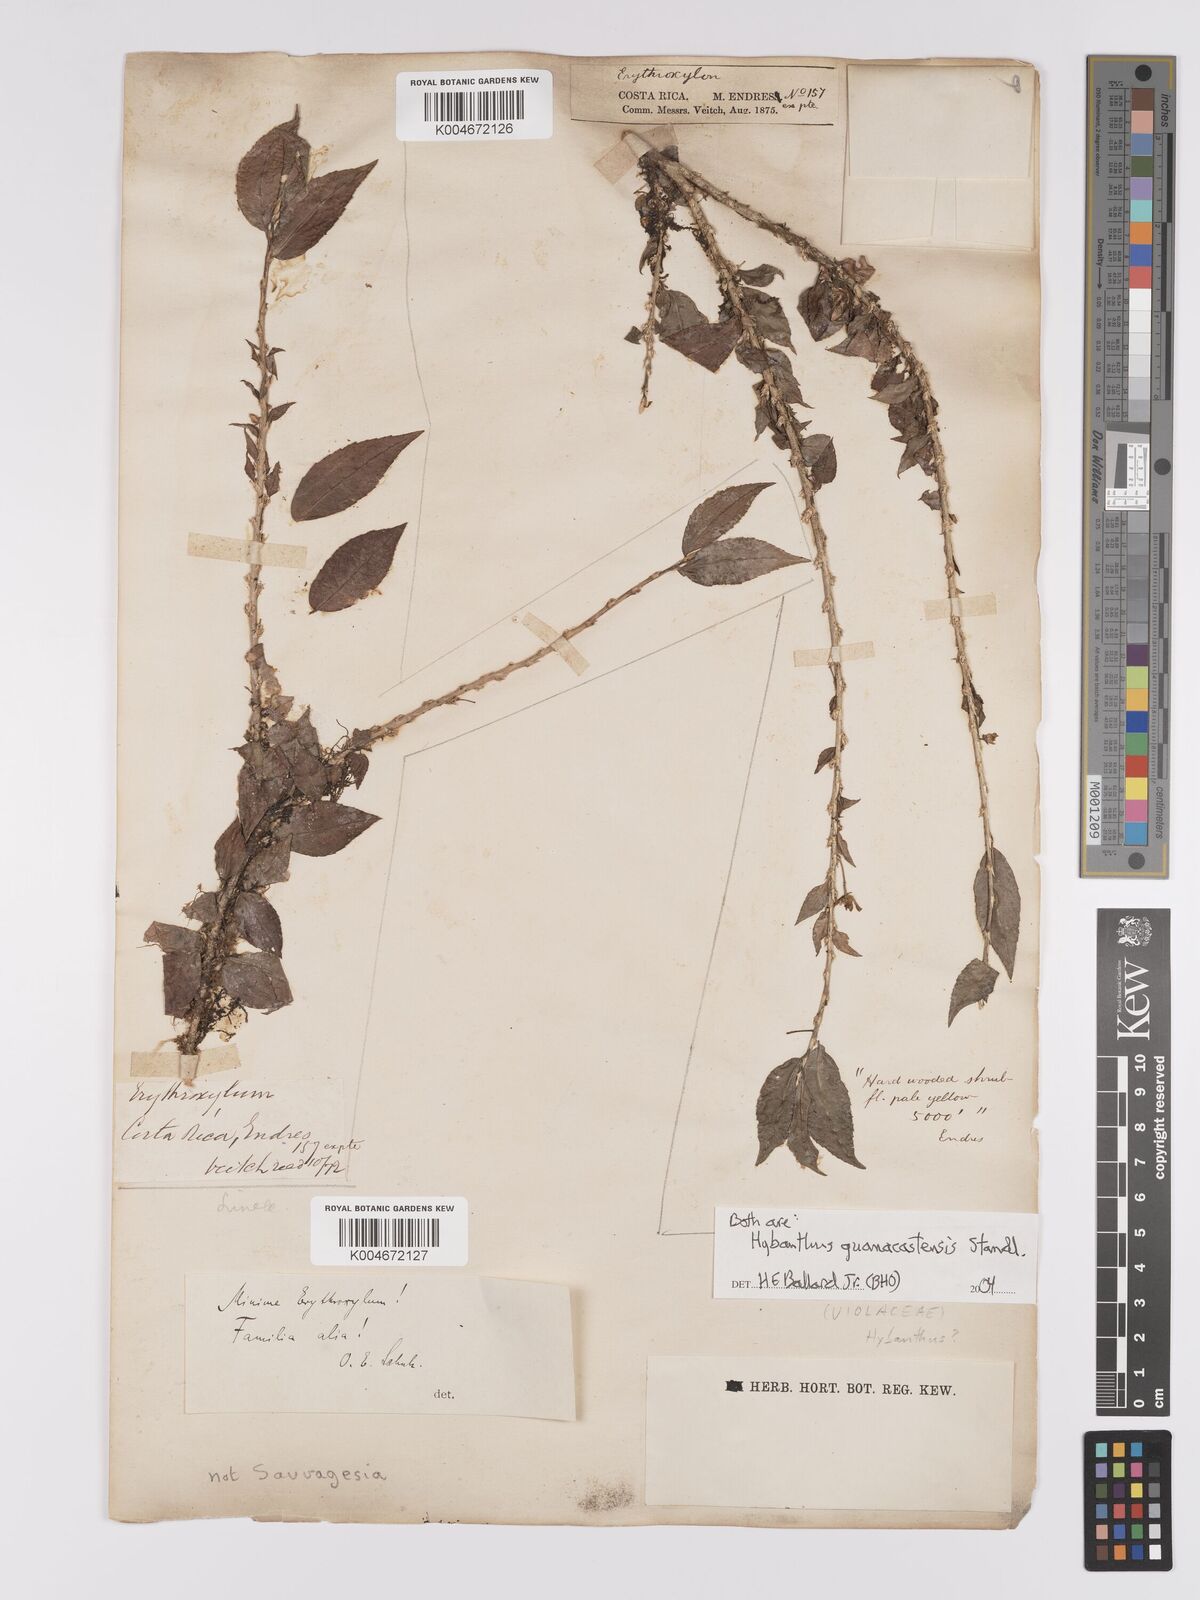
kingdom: Plantae
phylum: Tracheophyta
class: Magnoliopsida
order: Malpighiales
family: Violaceae
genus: Hybanthus
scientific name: Hybanthus guanacastensis
